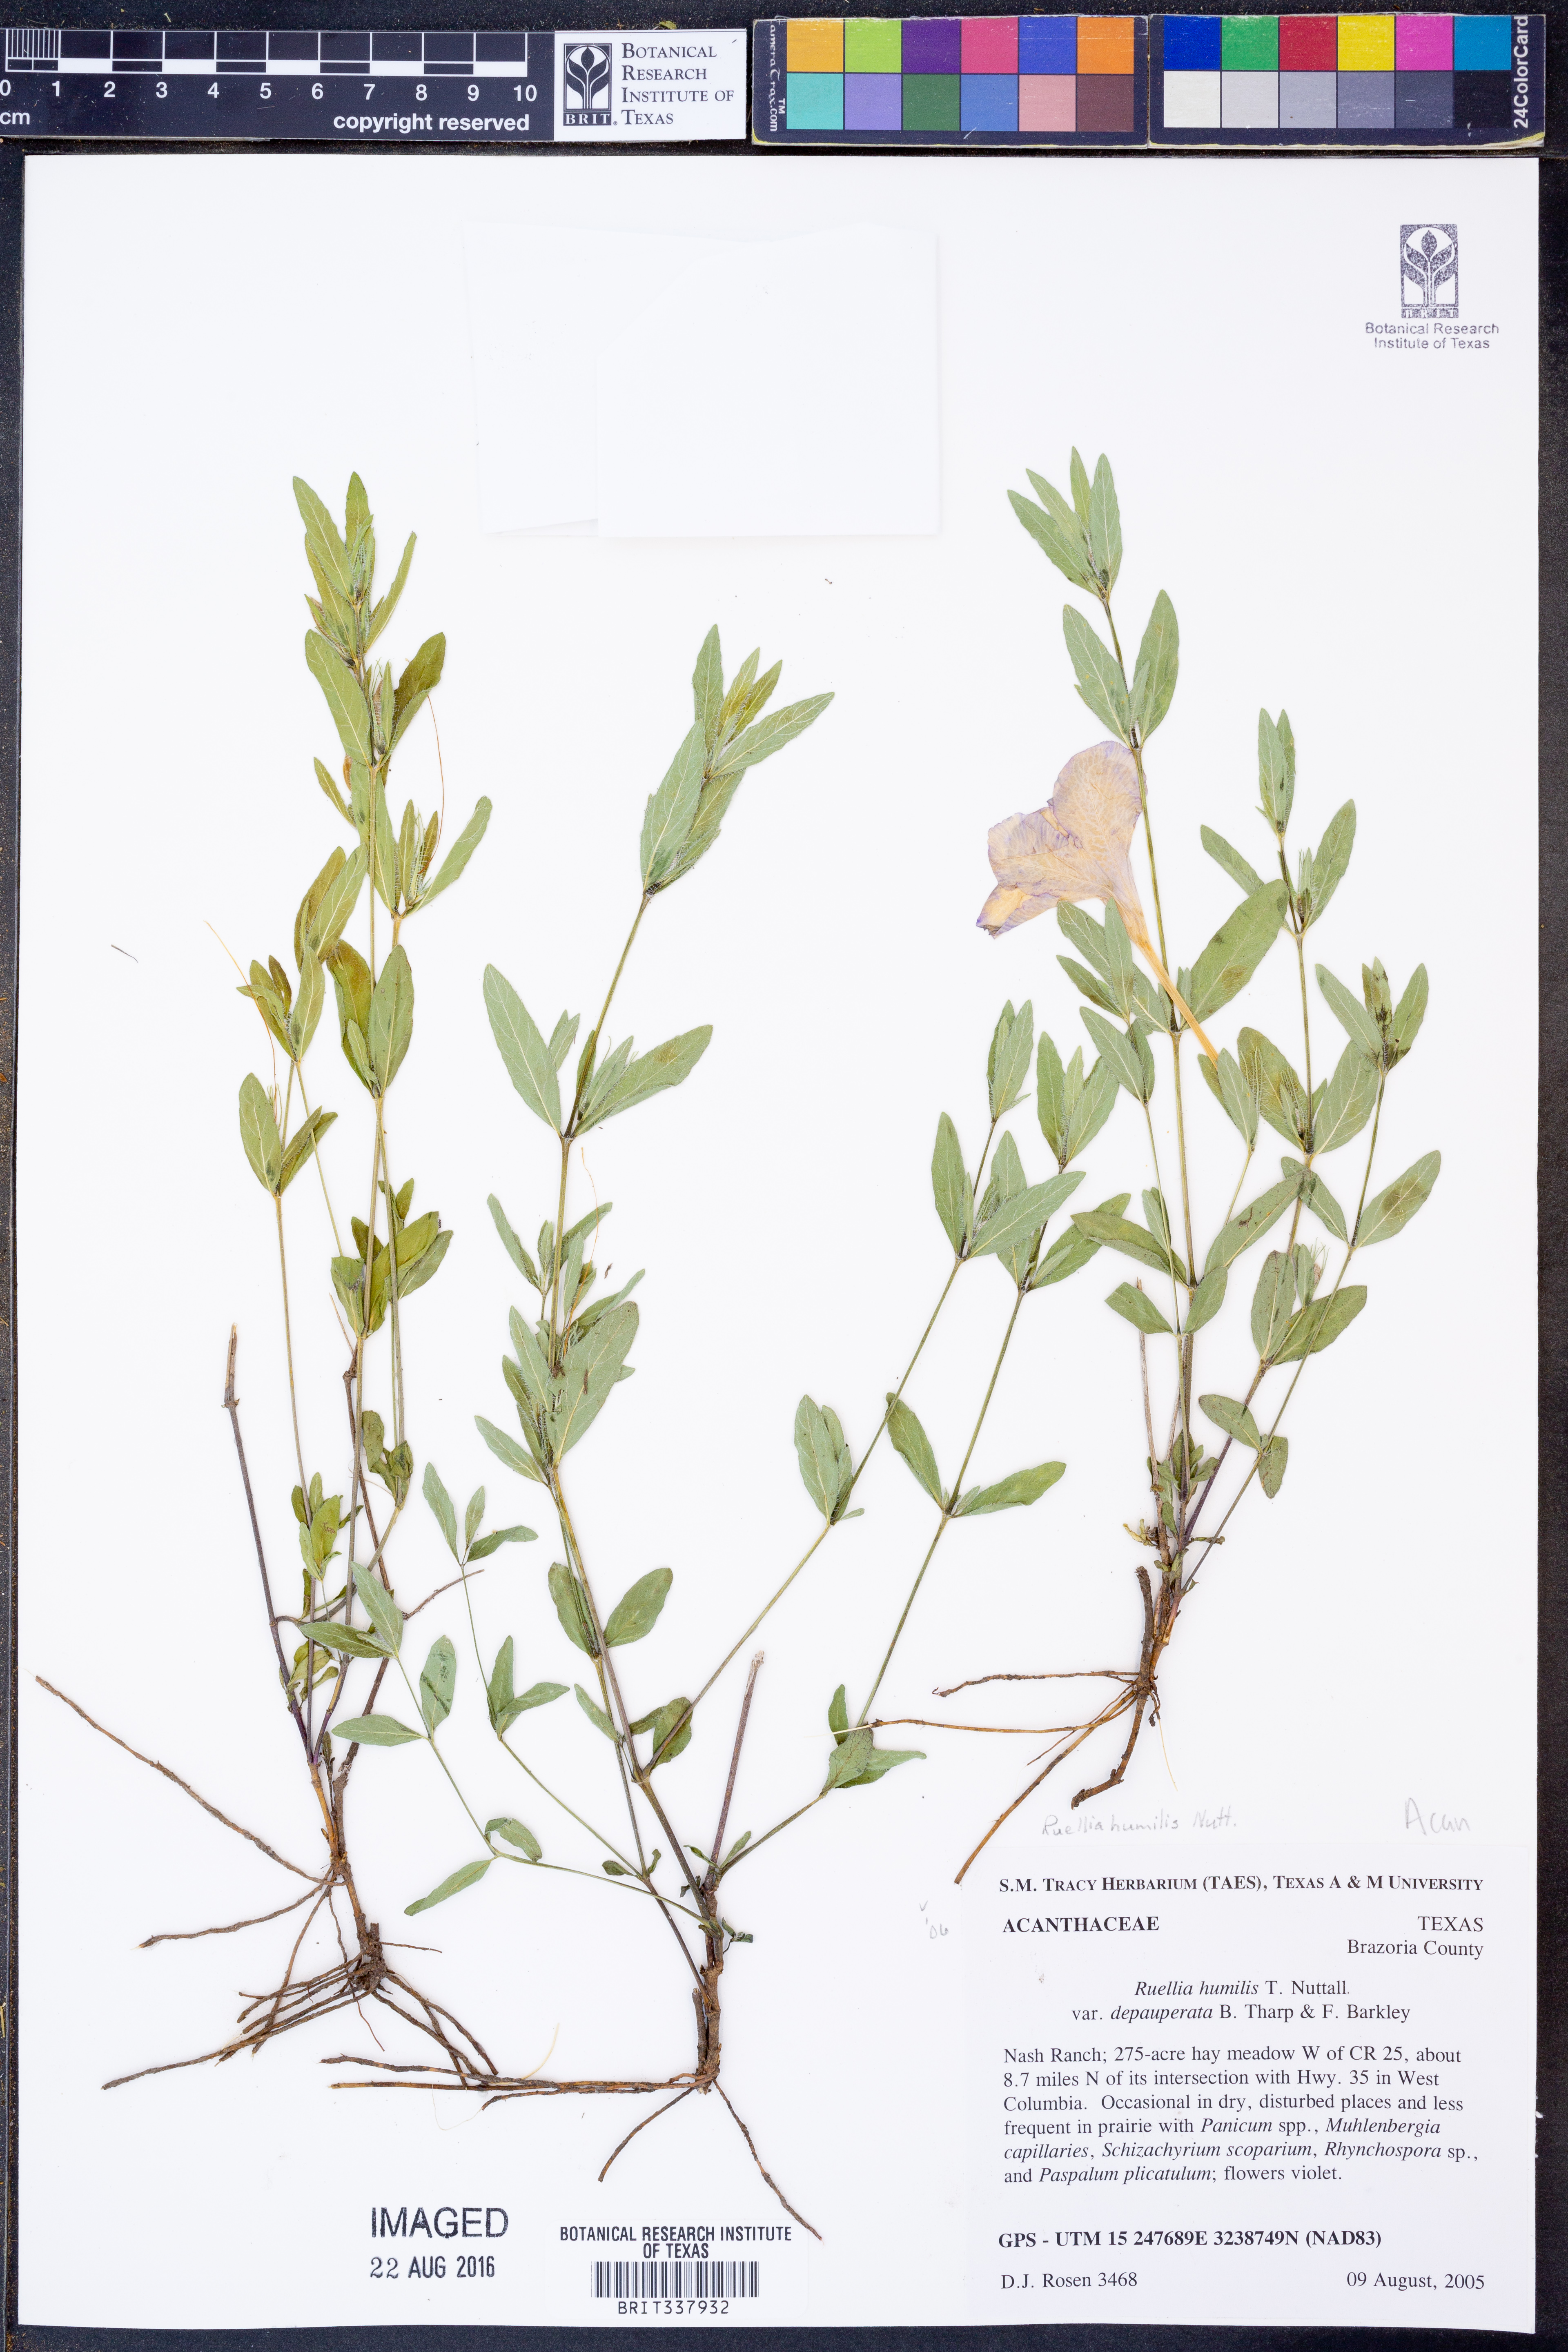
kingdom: Plantae
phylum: Tracheophyta
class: Magnoliopsida
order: Lamiales
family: Acanthaceae
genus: Ruellia
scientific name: Ruellia humilis
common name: Fringe-leaf ruellia
